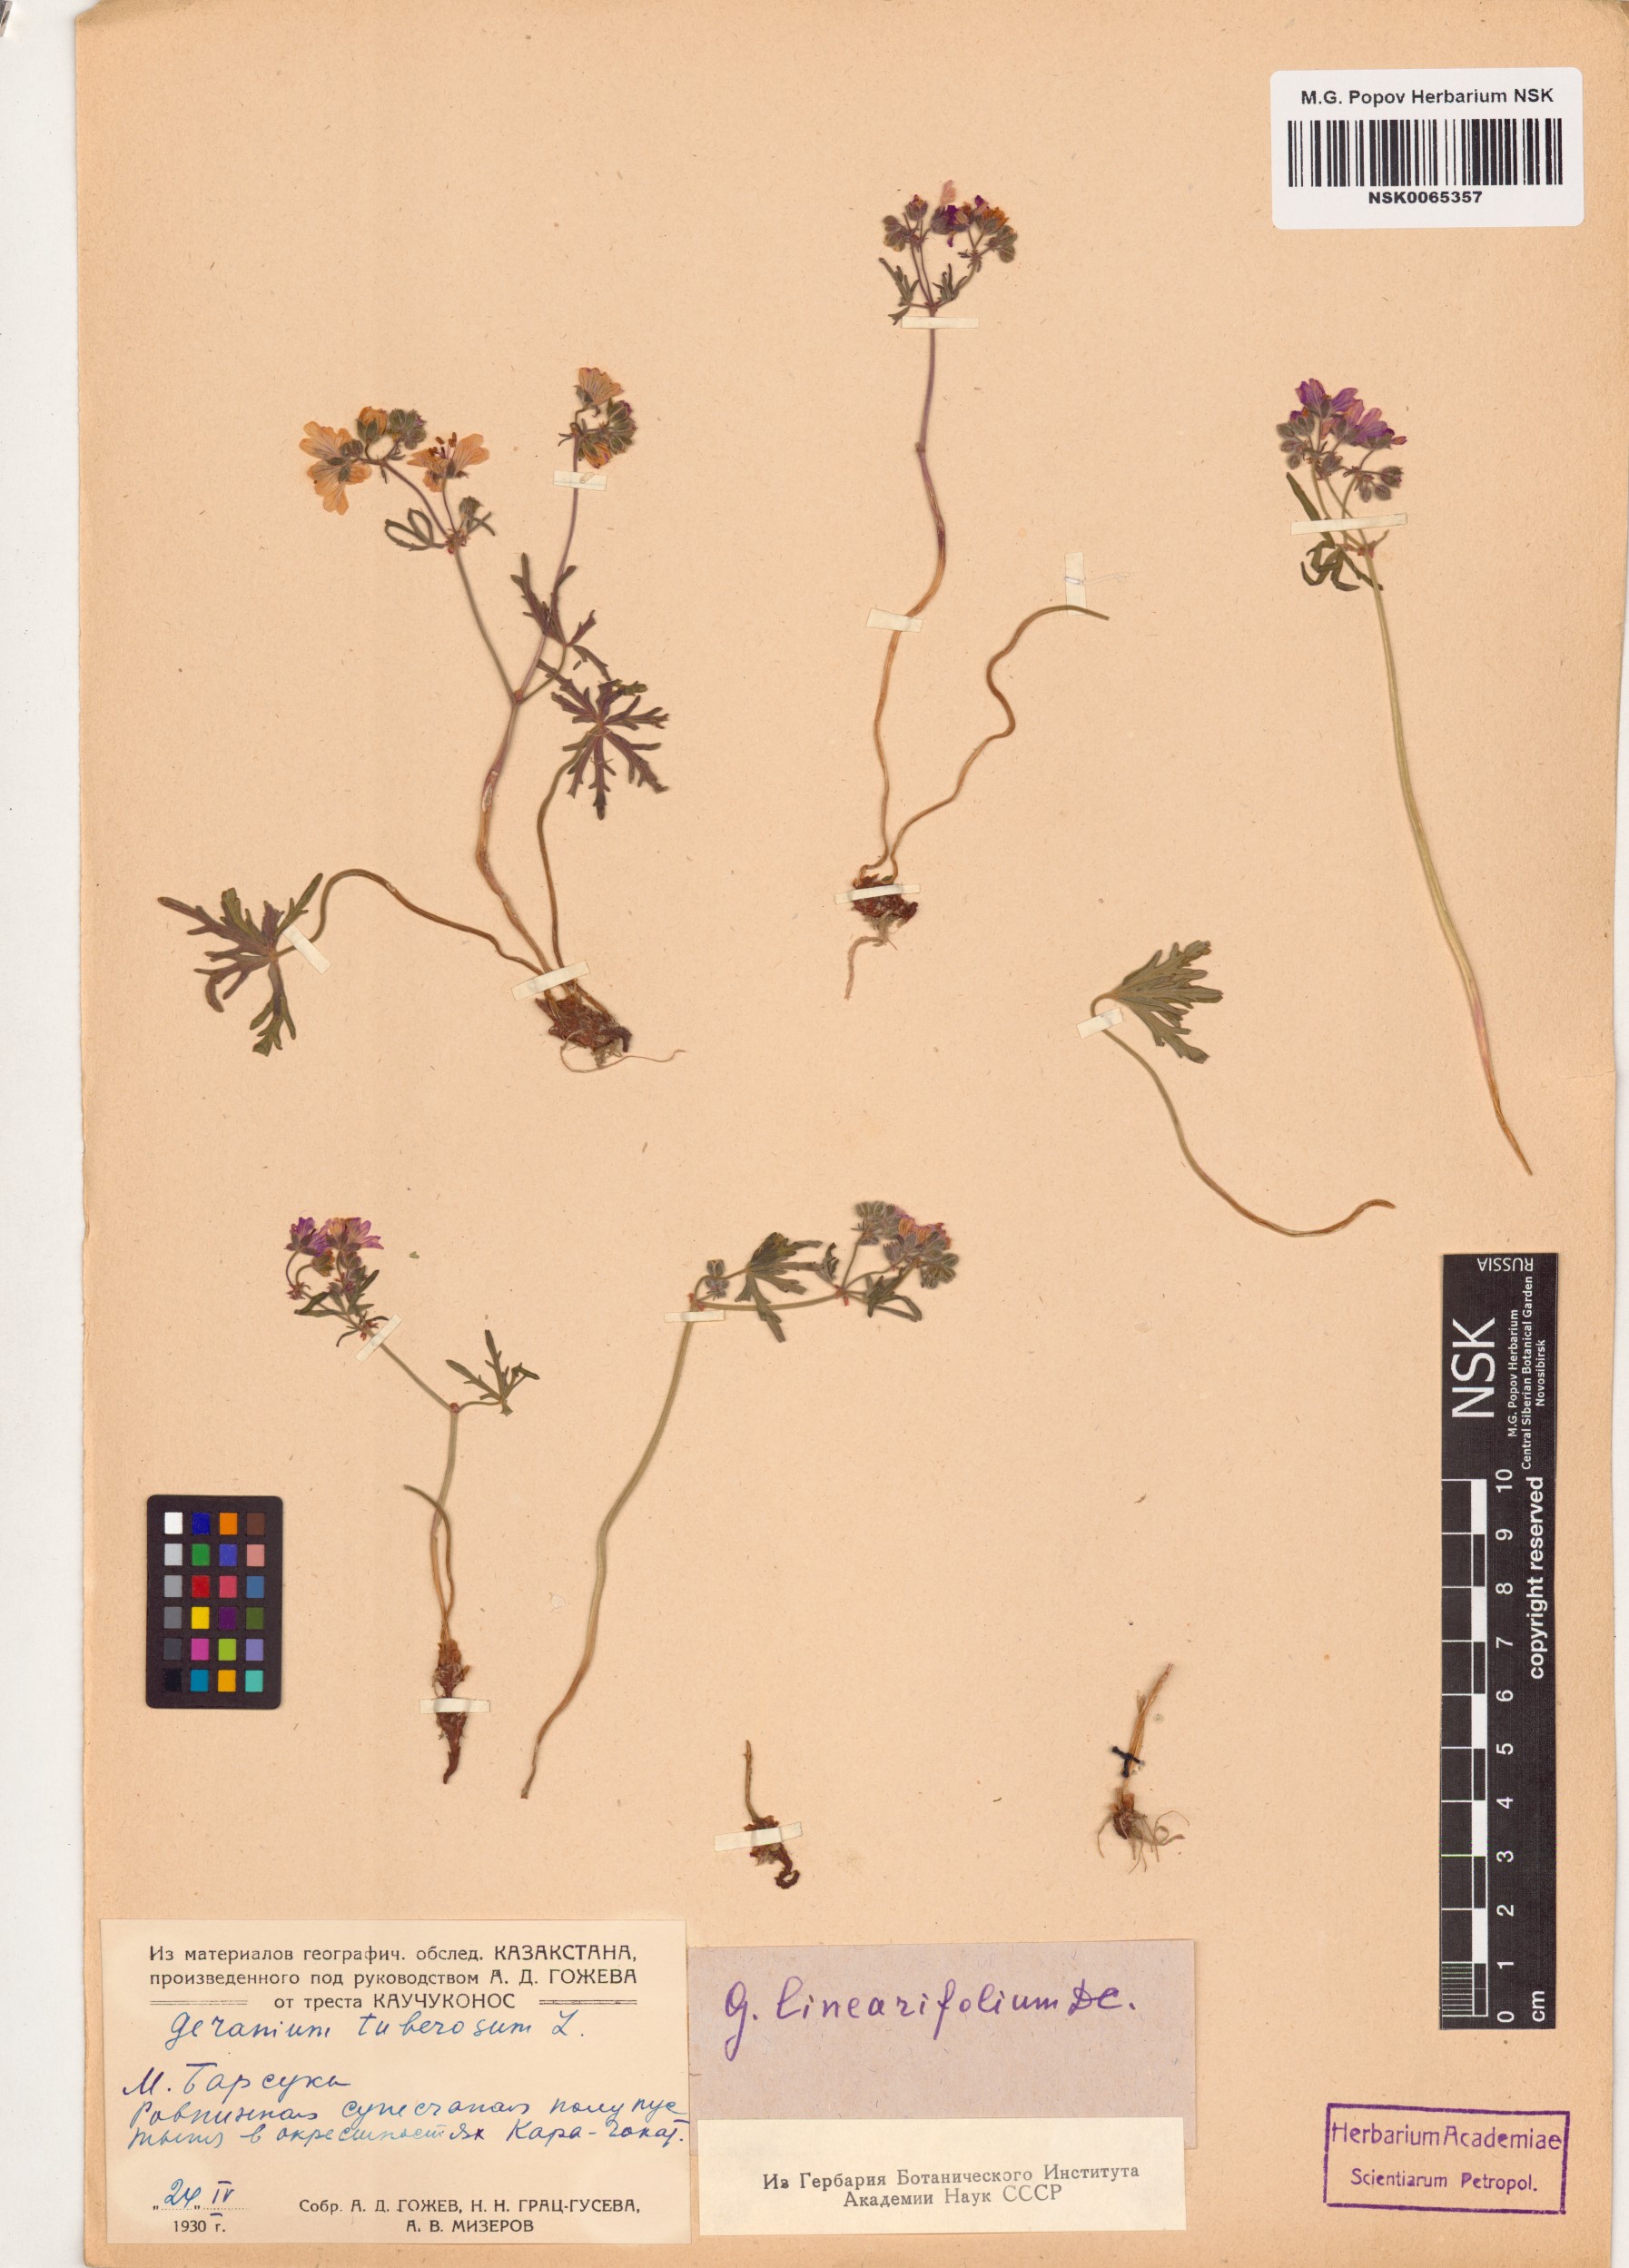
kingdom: Plantae
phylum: Tracheophyta
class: Magnoliopsida
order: Geraniales
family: Geraniaceae
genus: Geranium
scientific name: Geranium linearilobum
